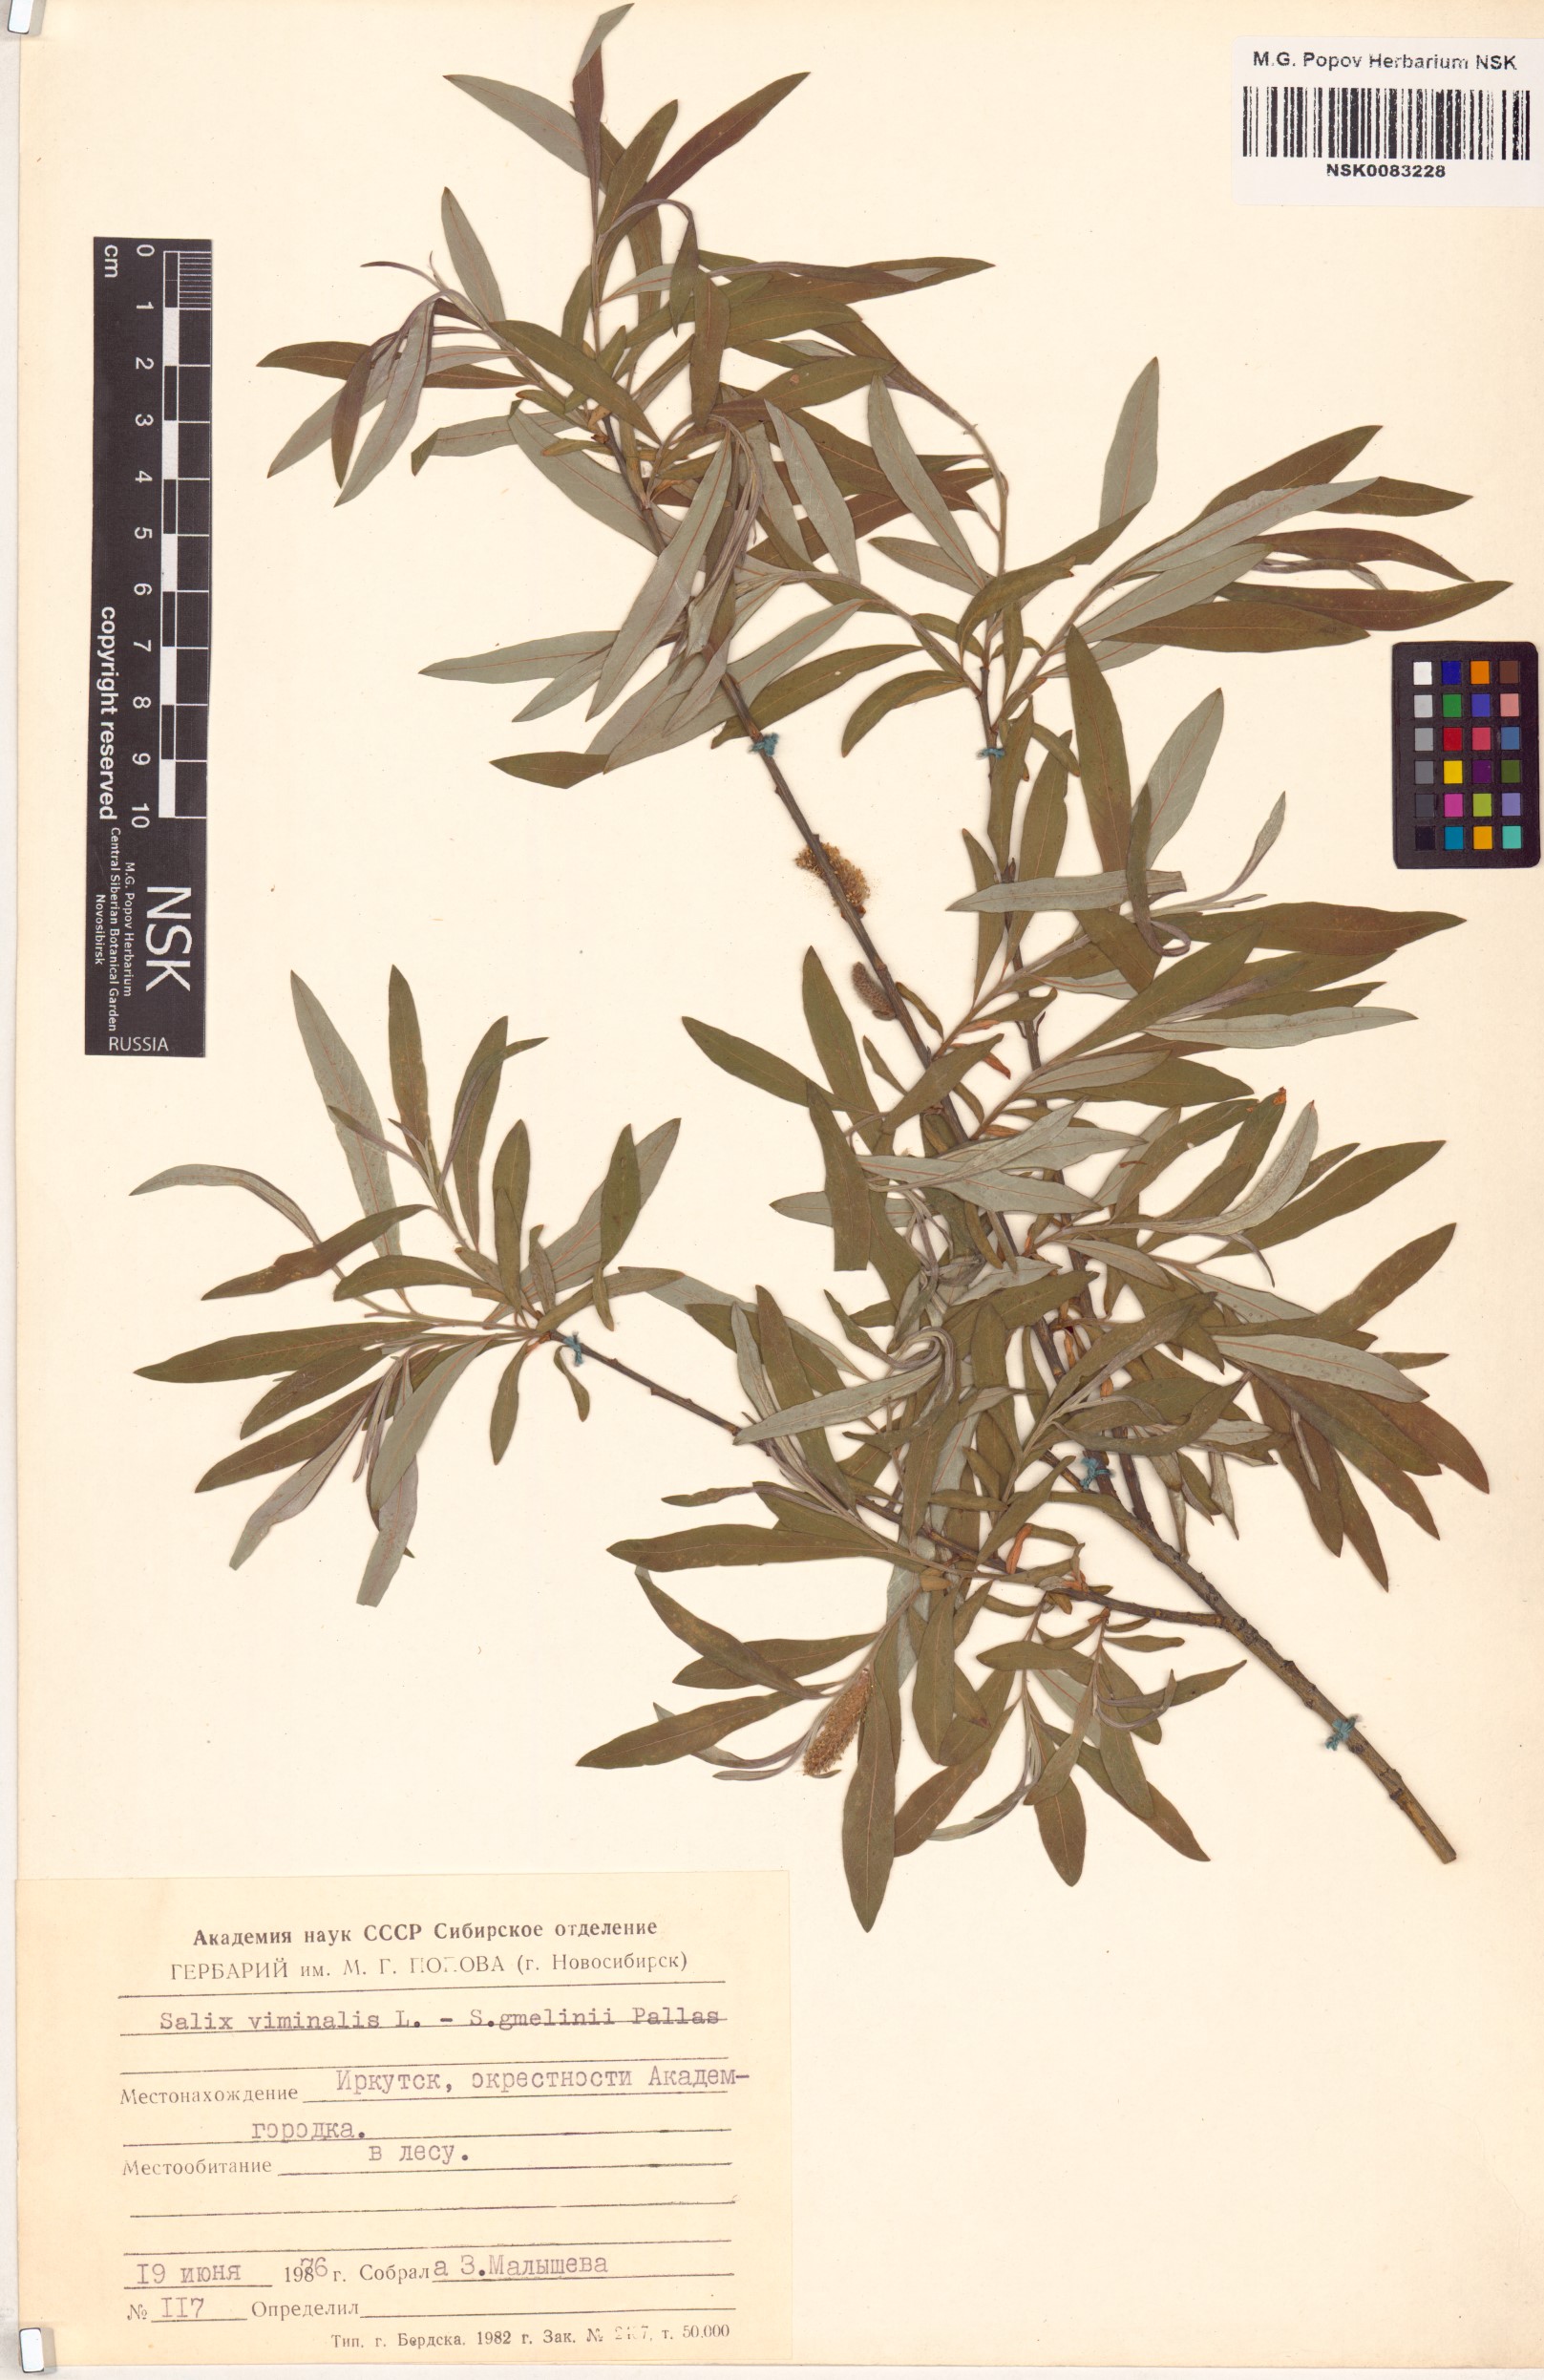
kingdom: Plantae
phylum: Tracheophyta
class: Magnoliopsida
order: Malpighiales
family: Salicaceae
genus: Salix
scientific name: Salix gmelinii
